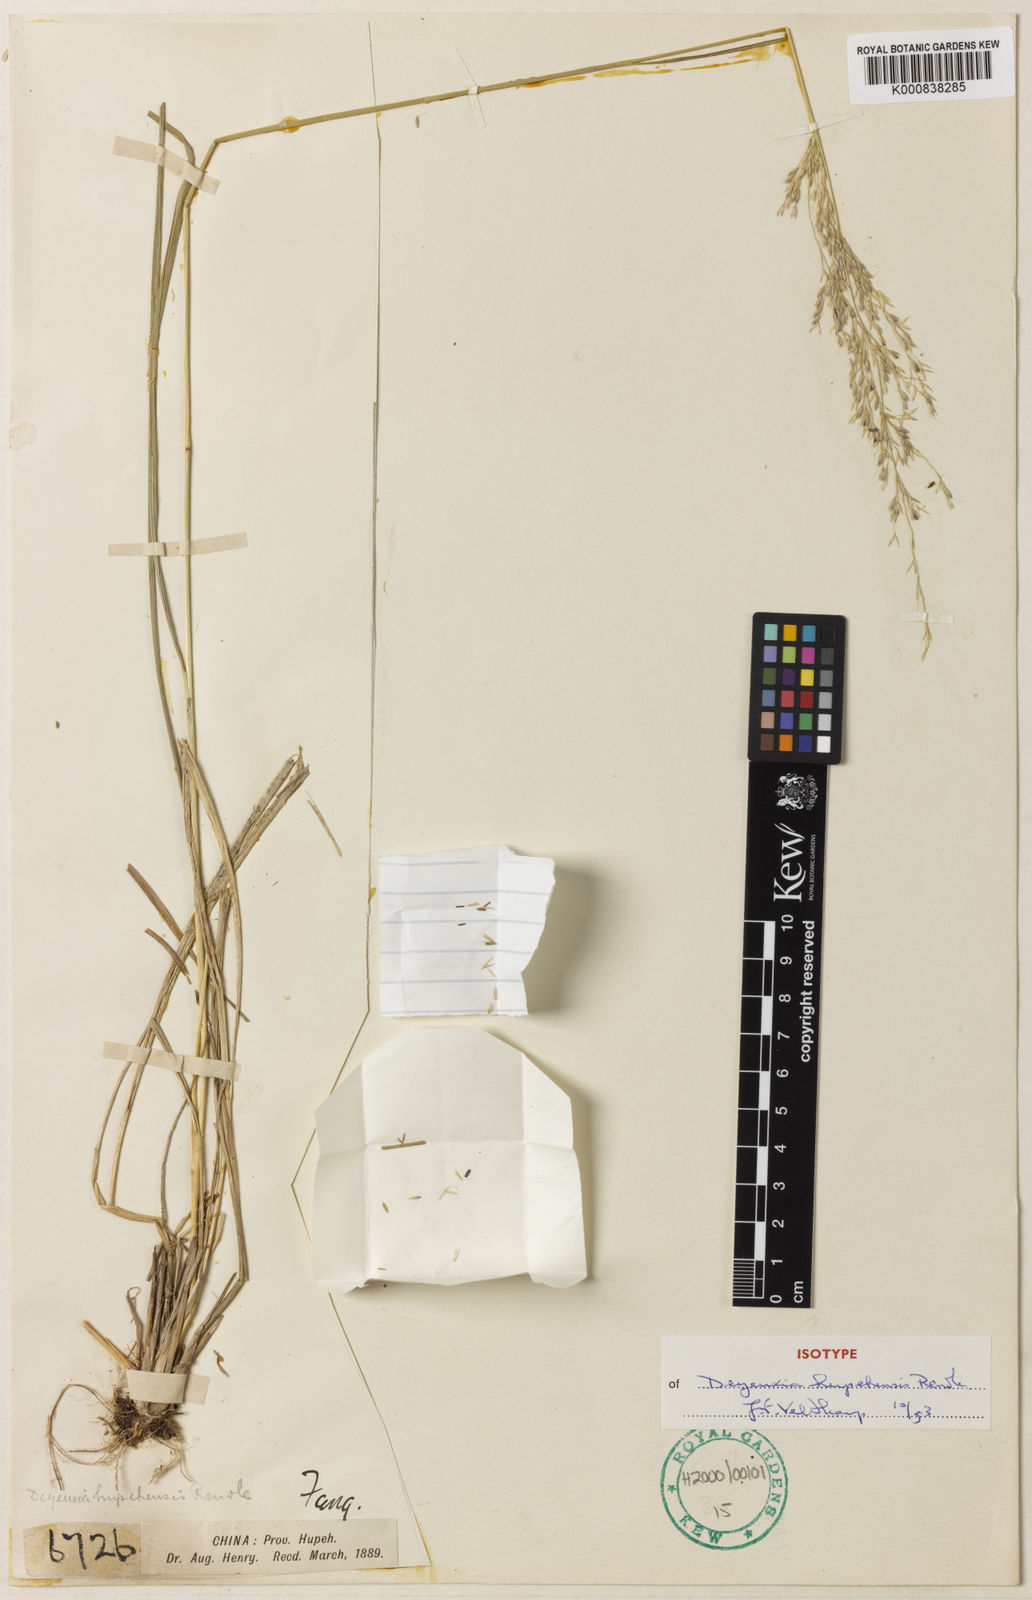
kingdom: Plantae
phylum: Tracheophyta
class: Liliopsida
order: Poales
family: Poaceae
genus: Calamagrostis
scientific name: Calamagrostis purpurascens
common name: Purple reedgrass
